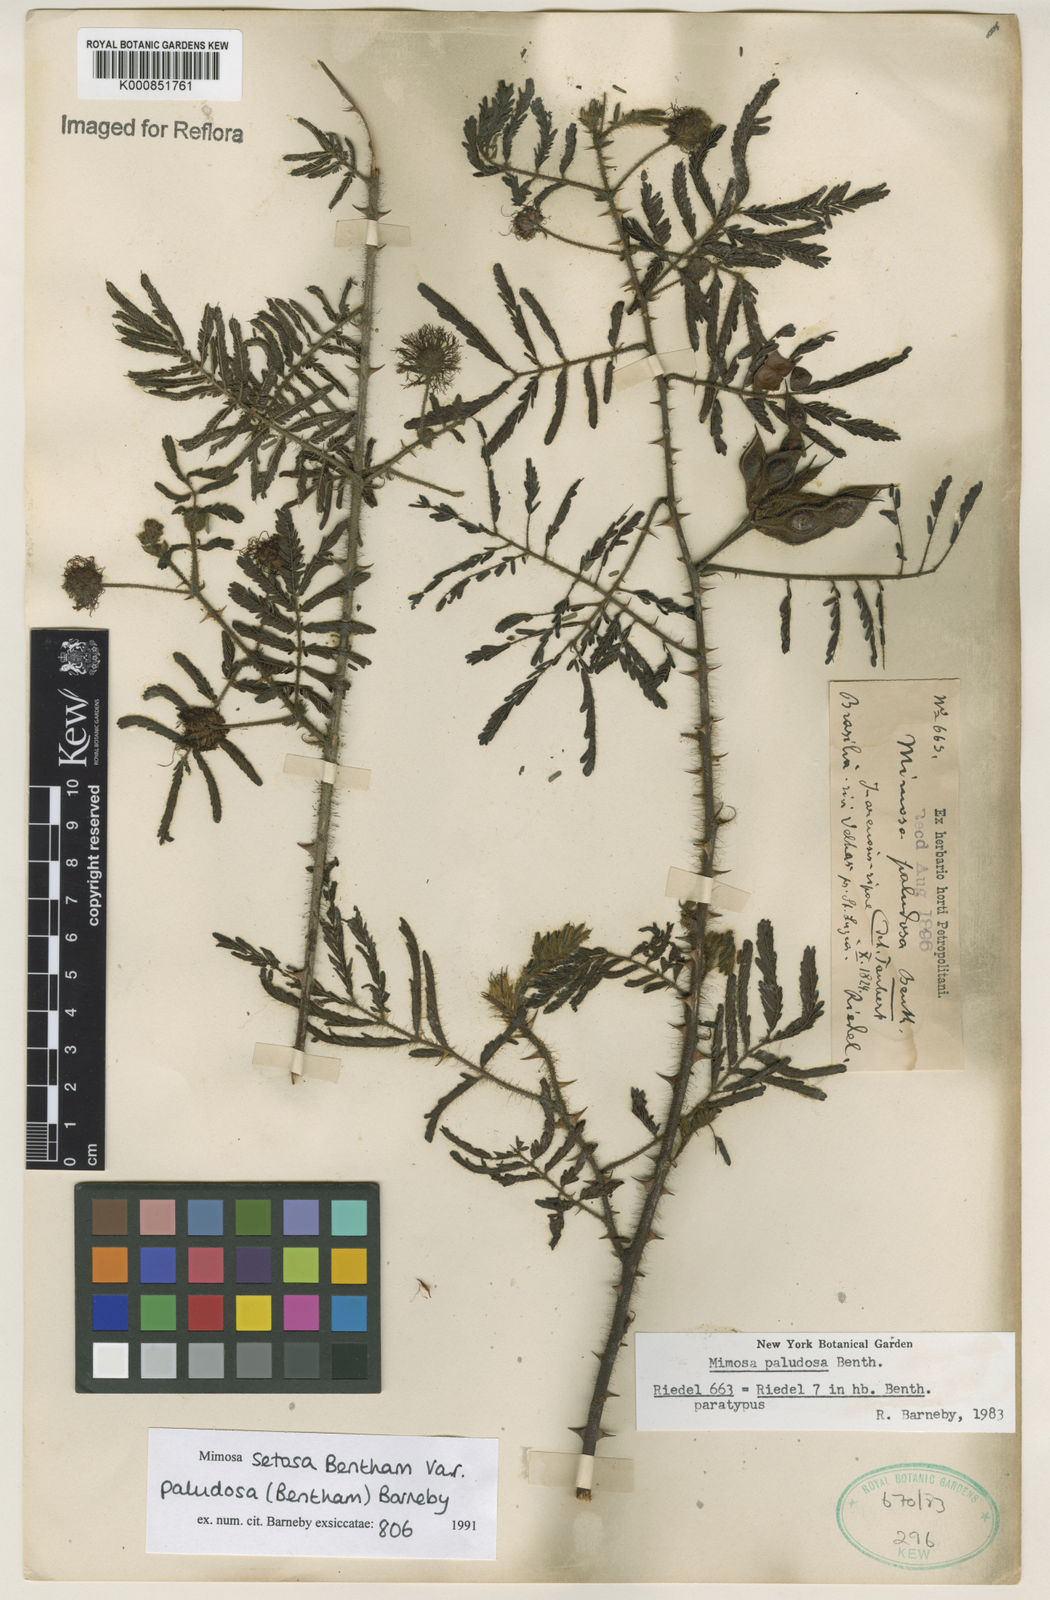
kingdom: Plantae
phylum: Tracheophyta
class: Magnoliopsida
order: Fabales
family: Fabaceae
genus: Mimosa
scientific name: Mimosa paludosa
